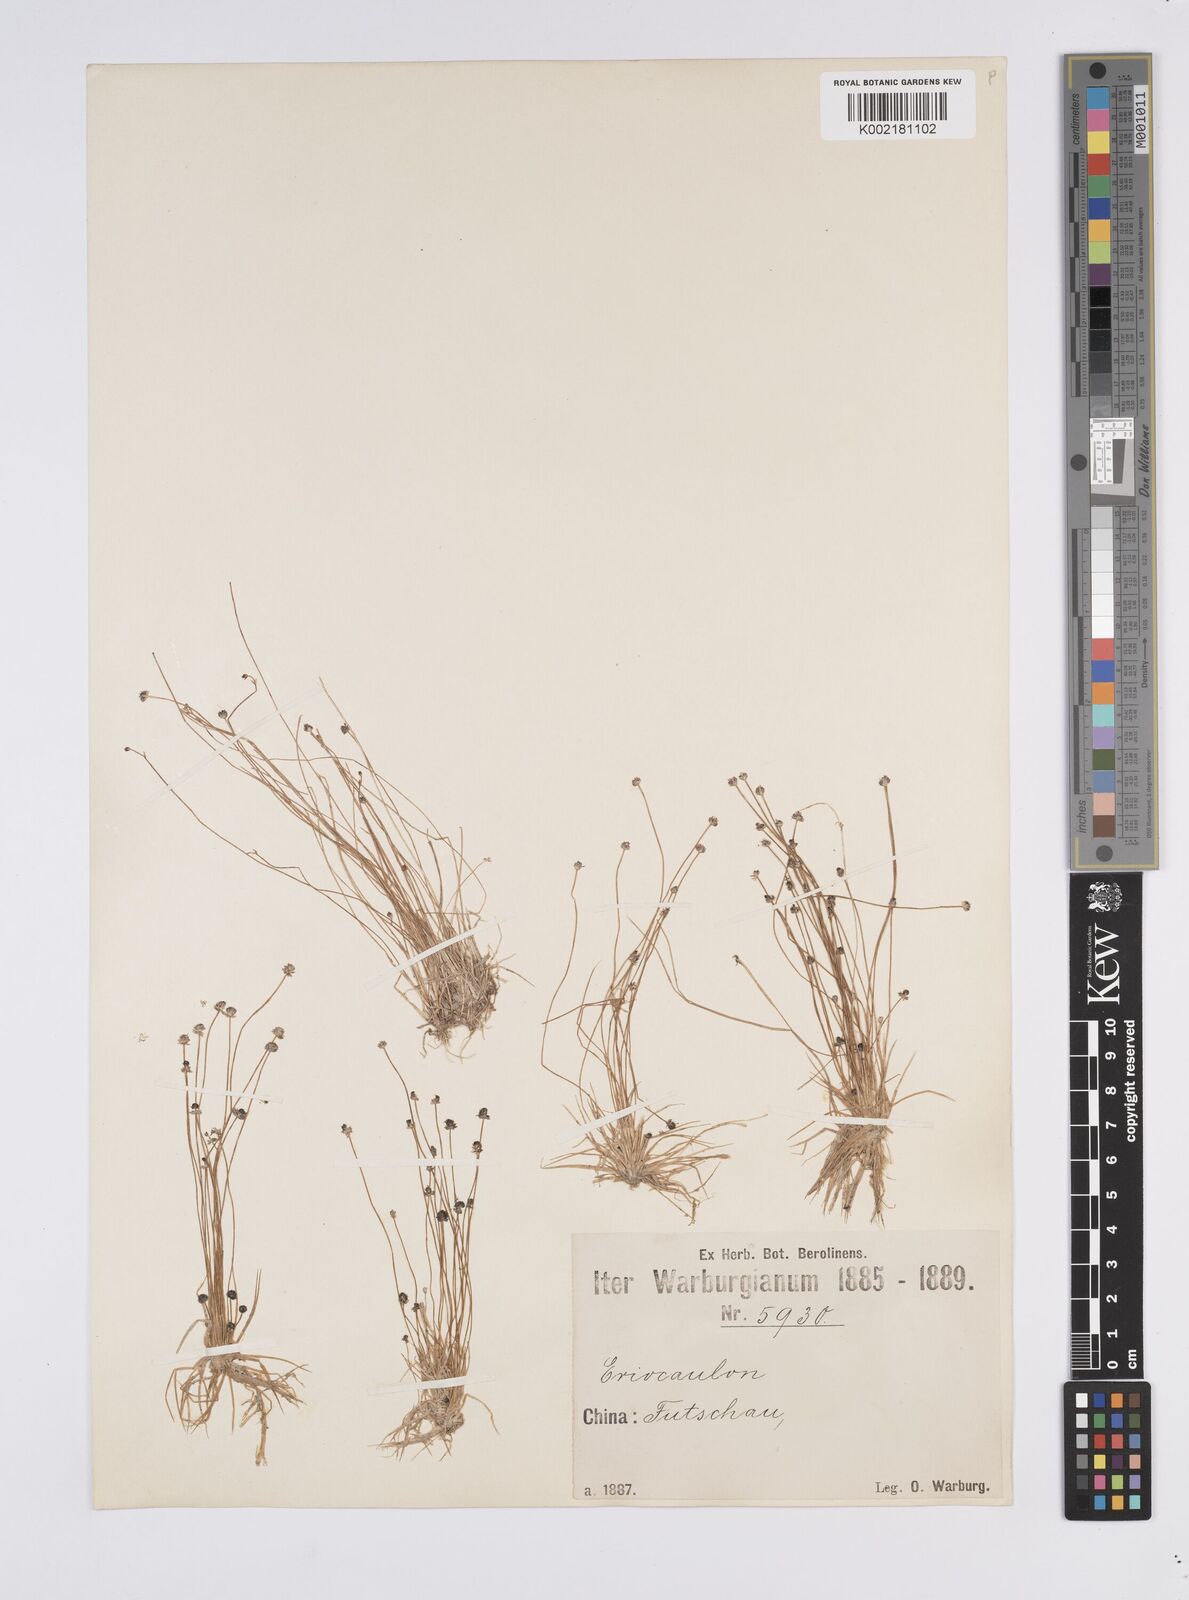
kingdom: Plantae
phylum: Tracheophyta
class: Liliopsida
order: Poales
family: Eriocaulaceae
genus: Eriocaulon
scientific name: Eriocaulon cinereum
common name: Ashy pipewort
